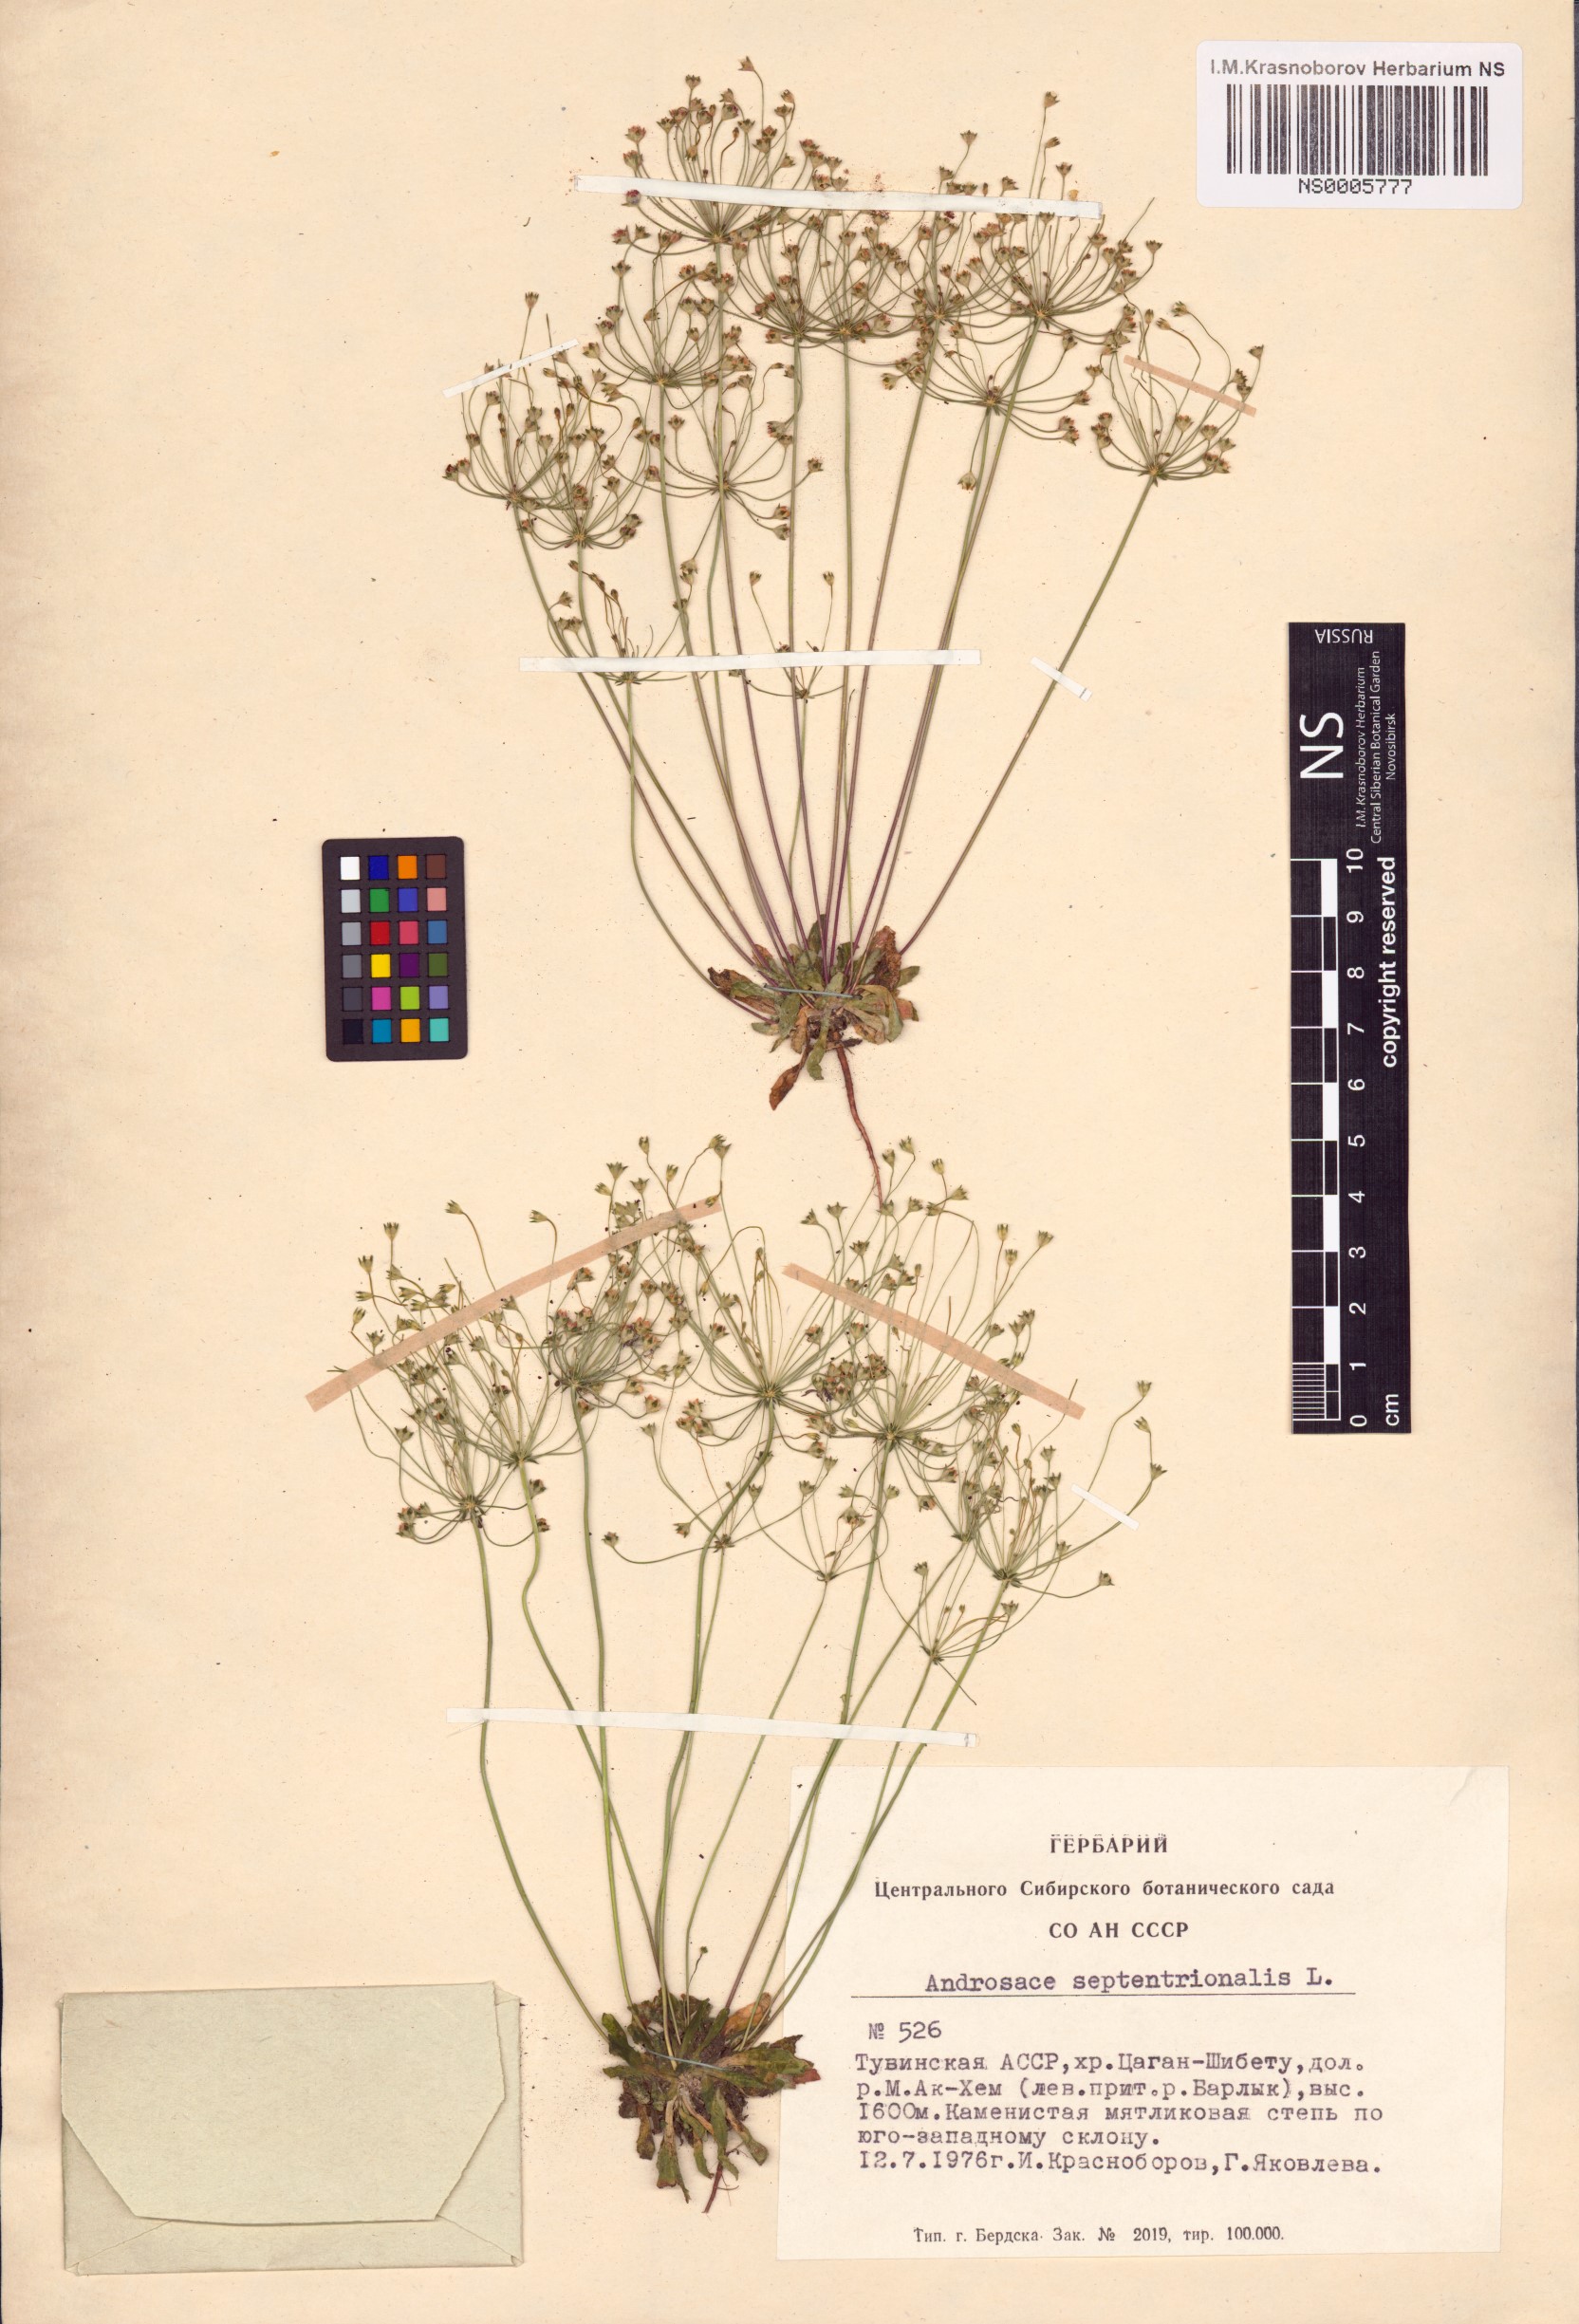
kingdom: Plantae
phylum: Tracheophyta
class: Magnoliopsida
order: Ericales
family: Primulaceae
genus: Androsace
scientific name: Androsace septentrionalis
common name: Hairy northern fairy-candelabra
